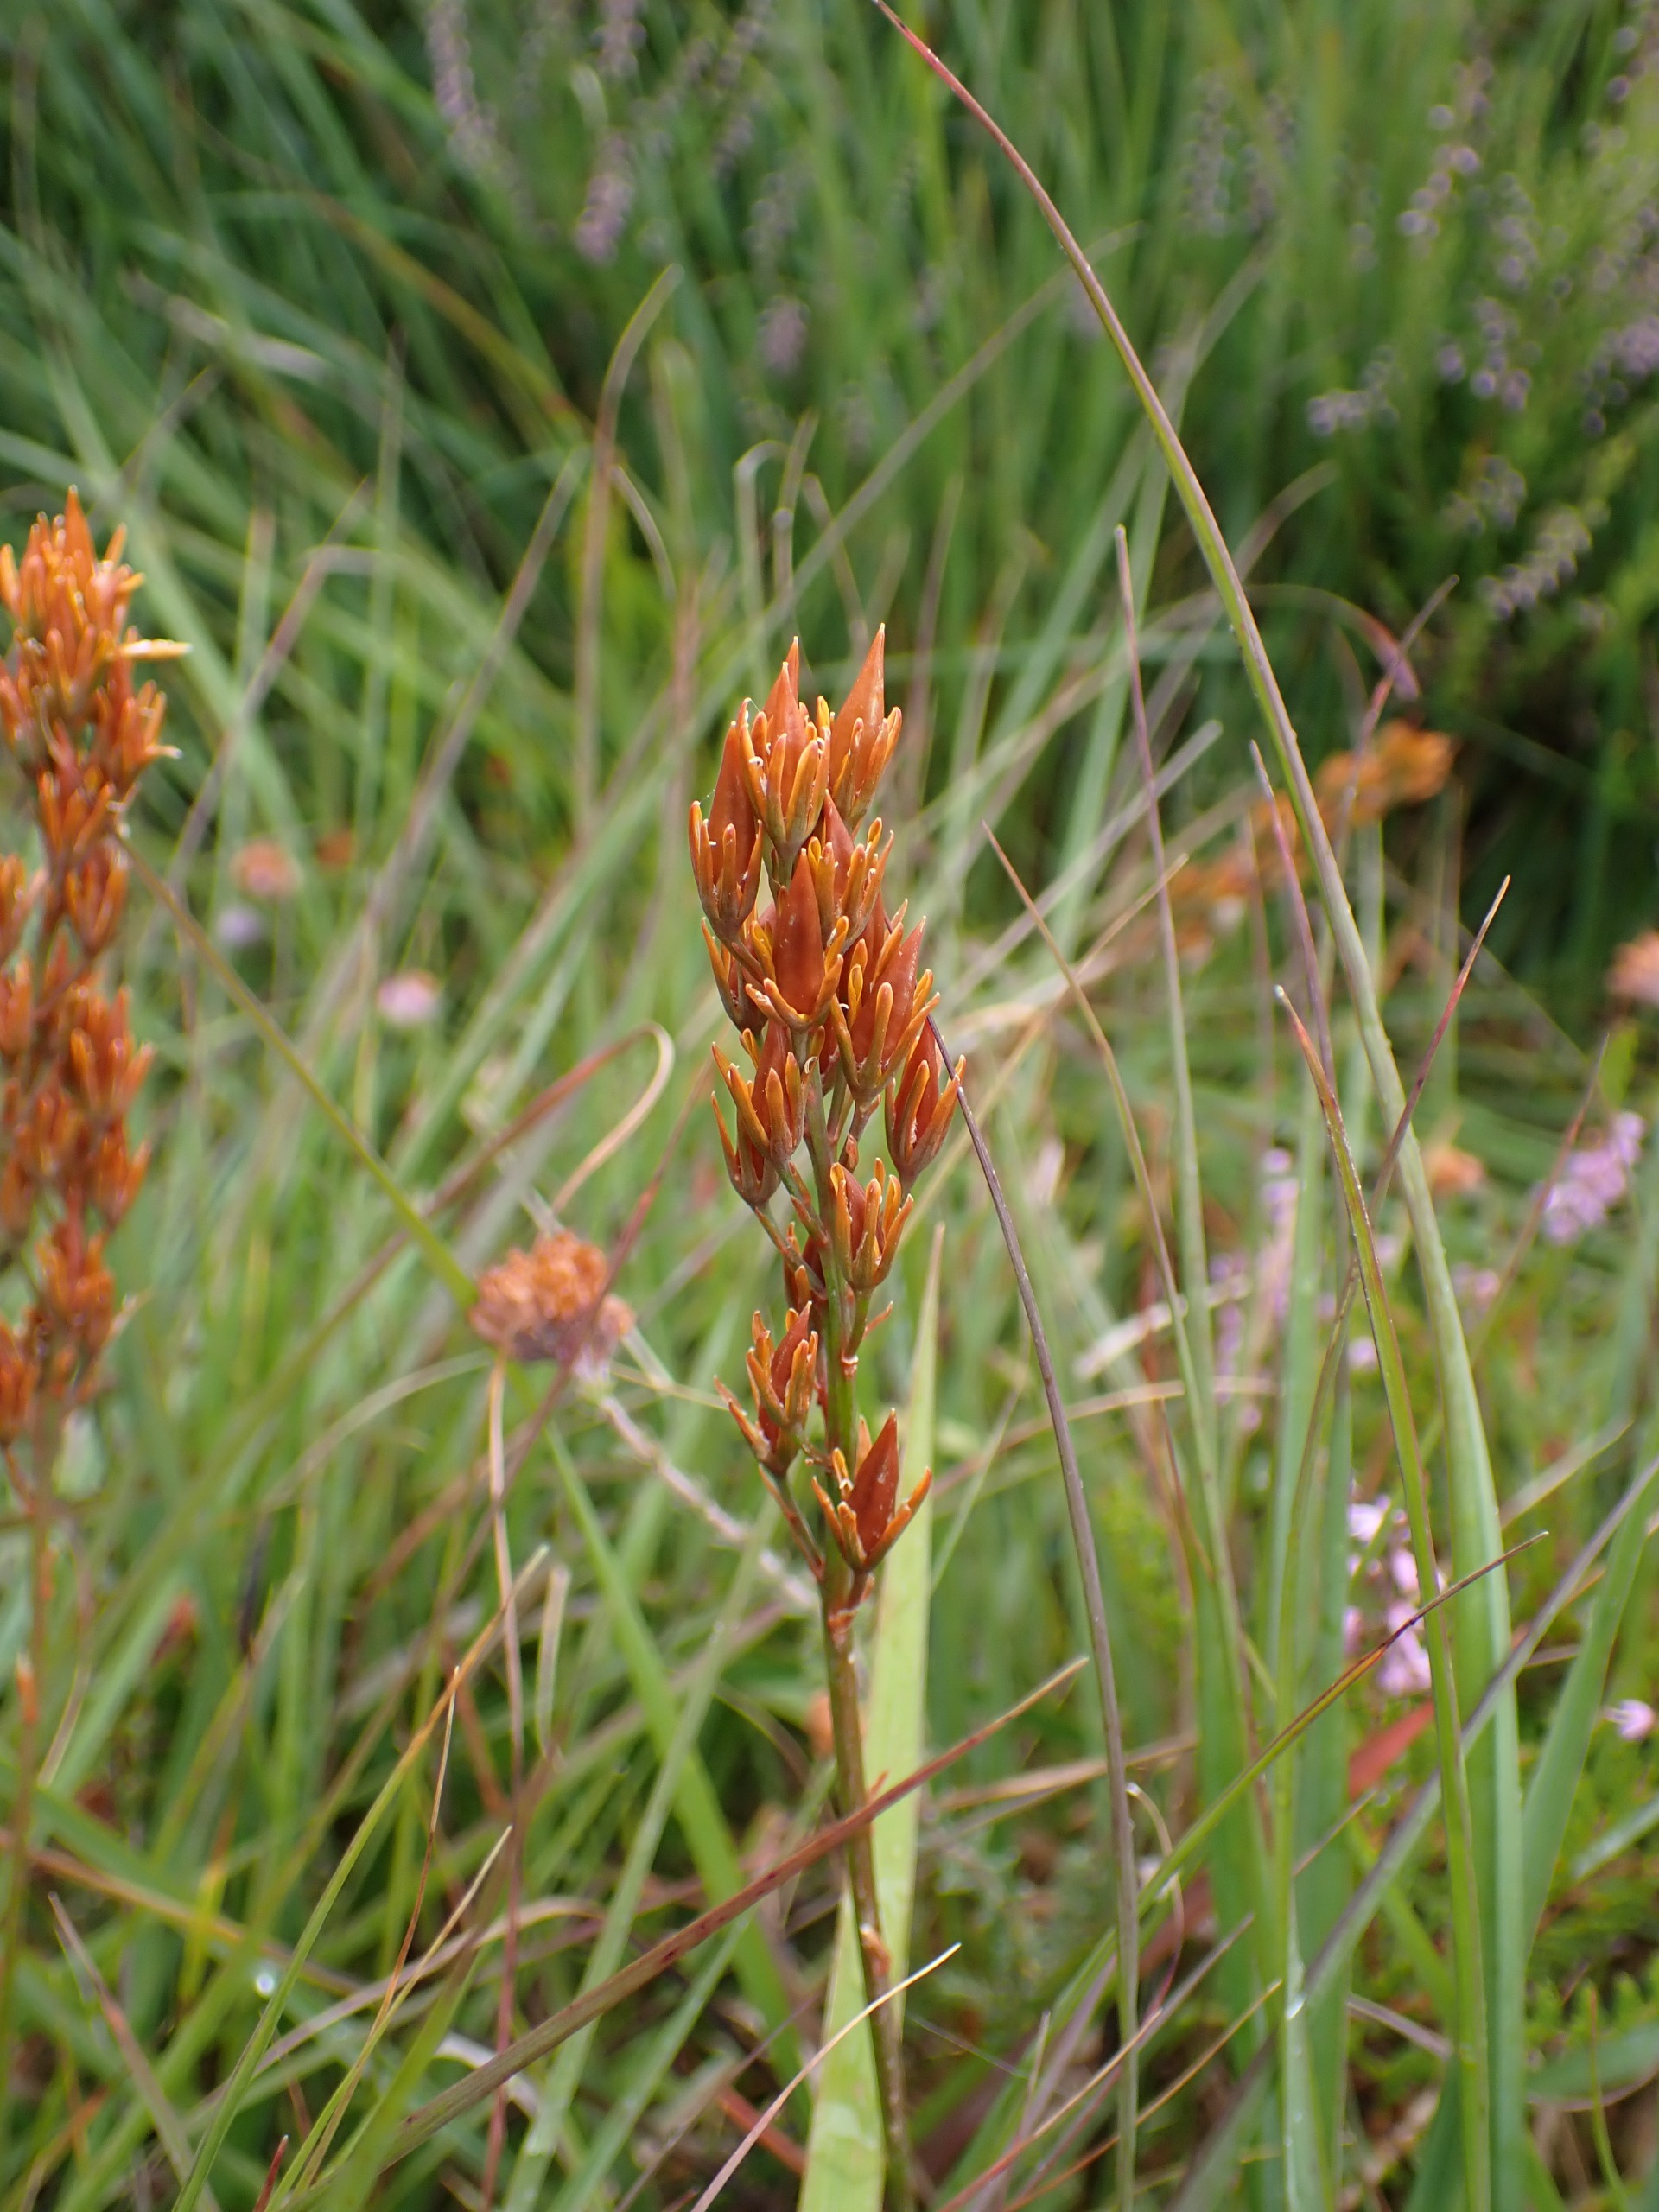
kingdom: Plantae
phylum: Tracheophyta
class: Liliopsida
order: Dioscoreales
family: Nartheciaceae
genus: Narthecium
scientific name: Narthecium ossifragum
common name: Benbræk
